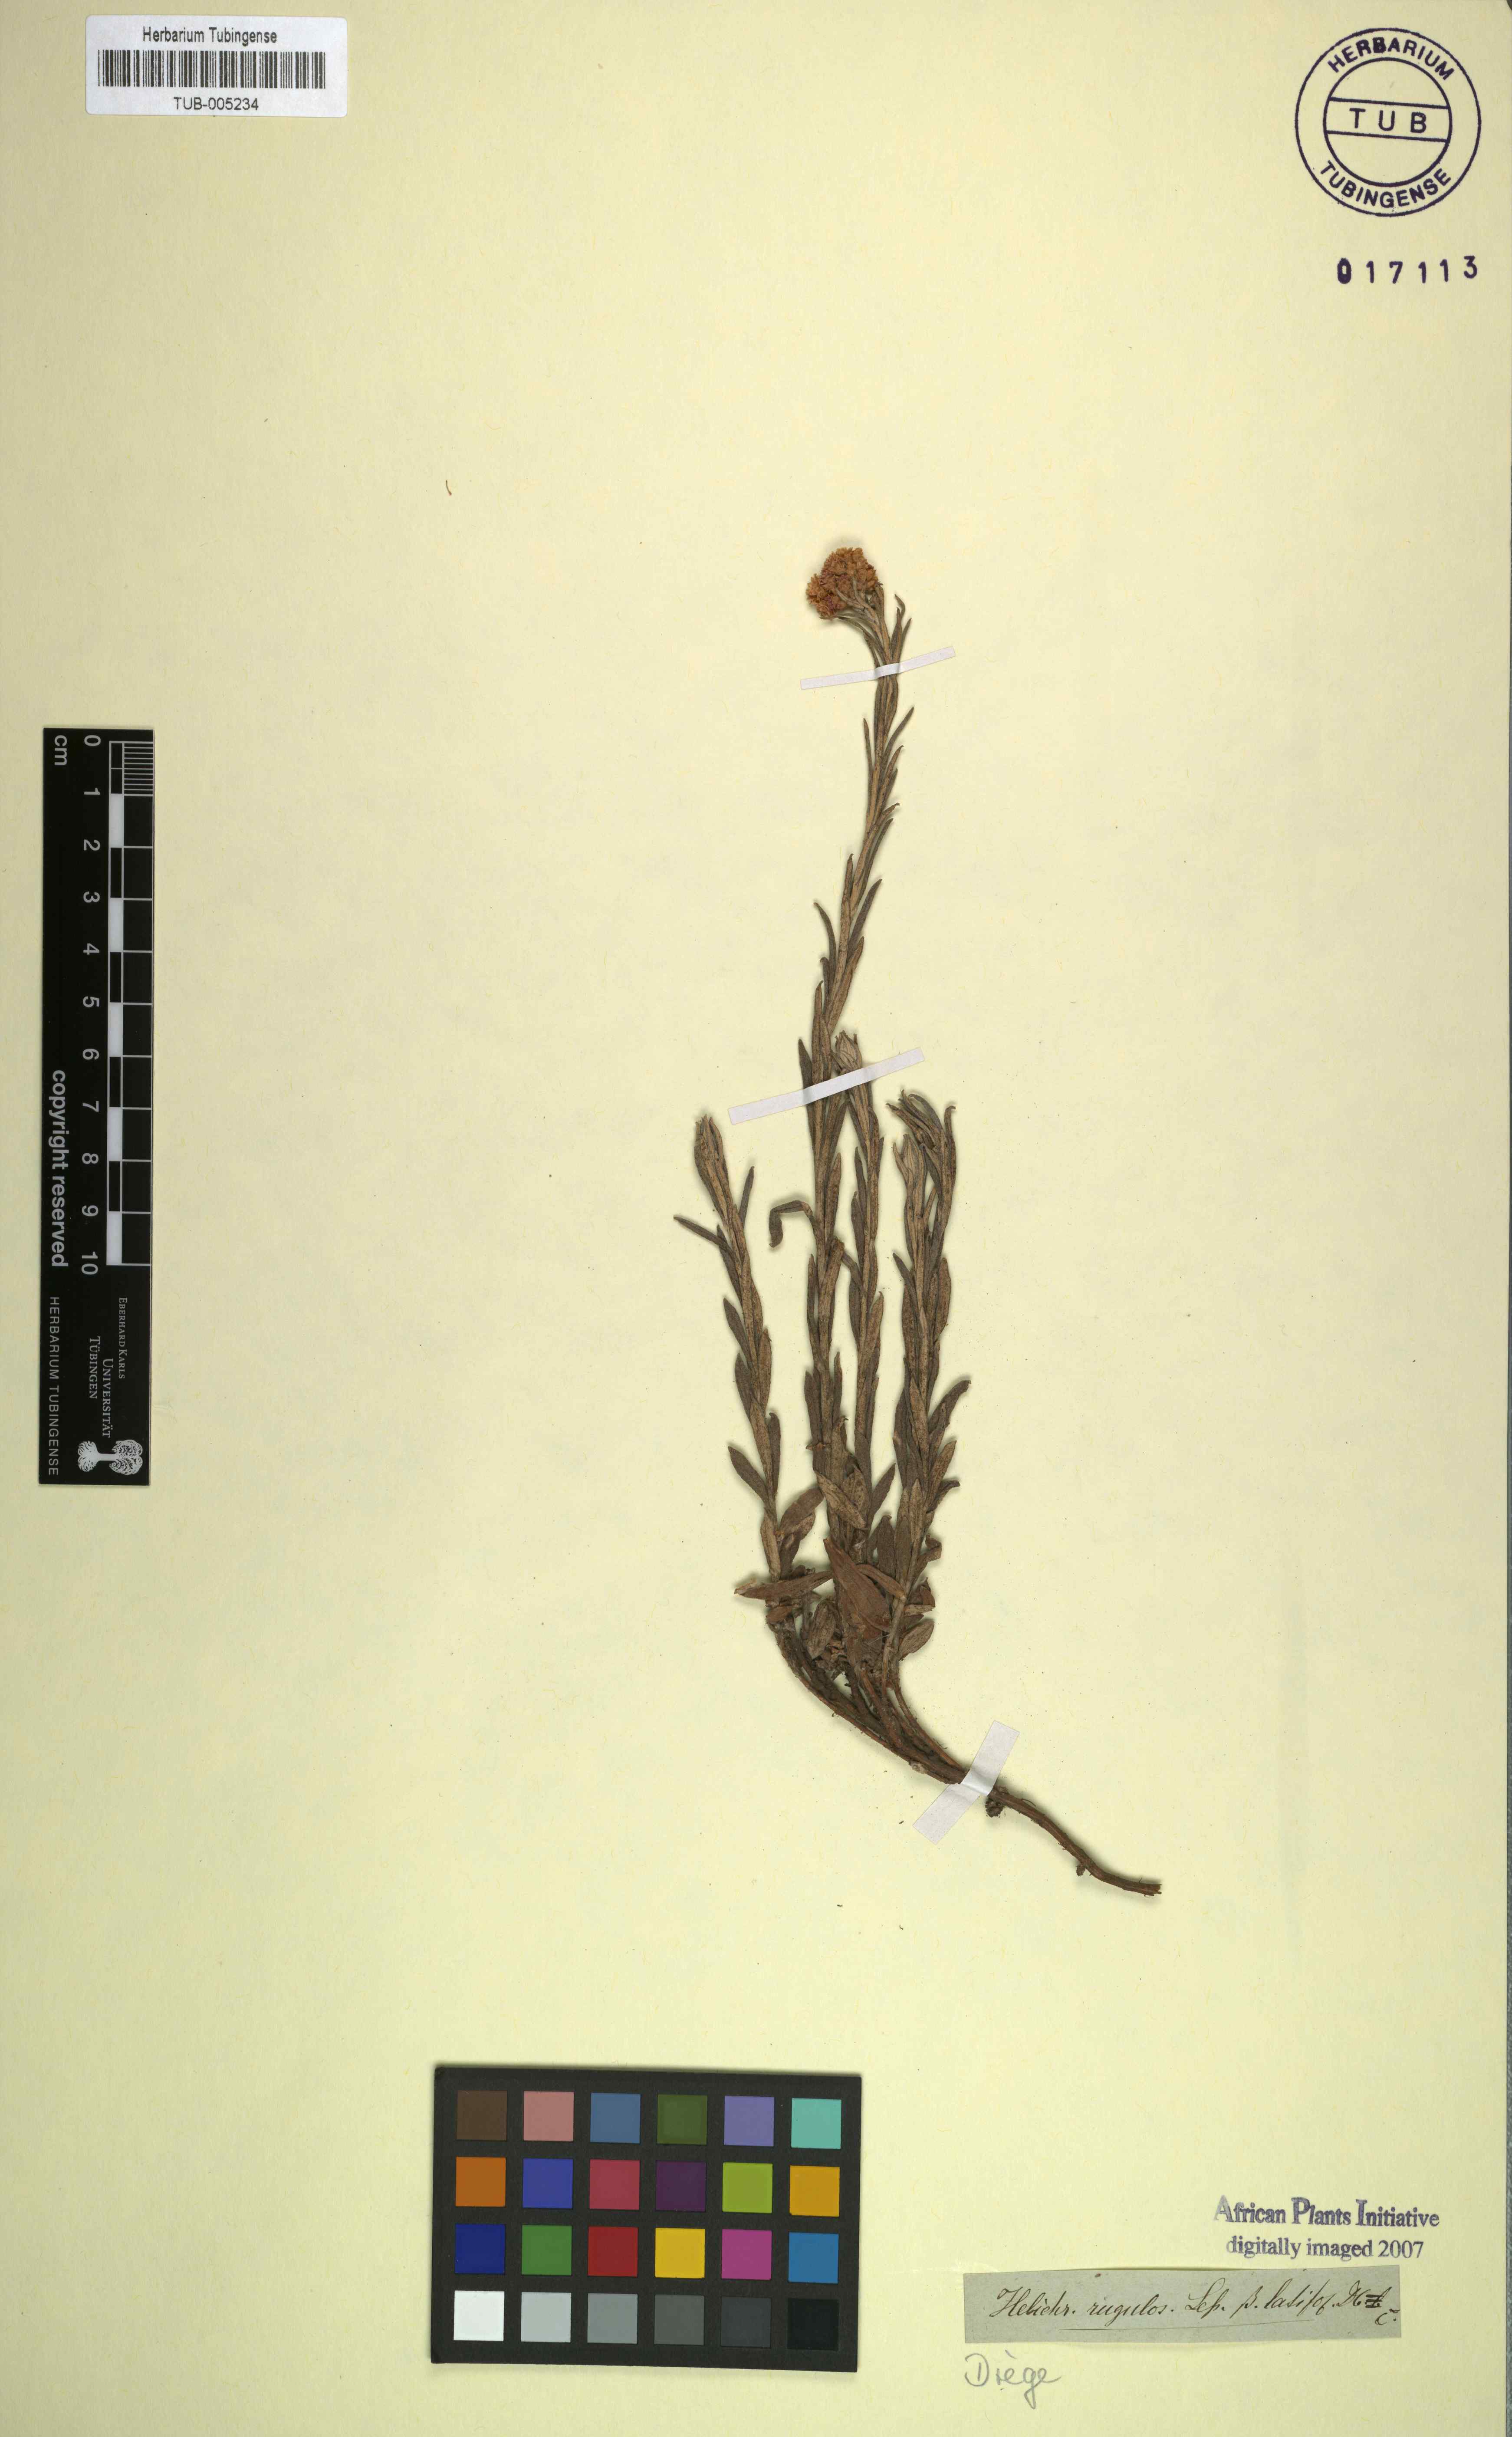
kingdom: Plantae
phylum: Tracheophyta
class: Magnoliopsida
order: Asterales
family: Asteraceae
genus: Helichrysum
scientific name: Helichrysum rugulosum
